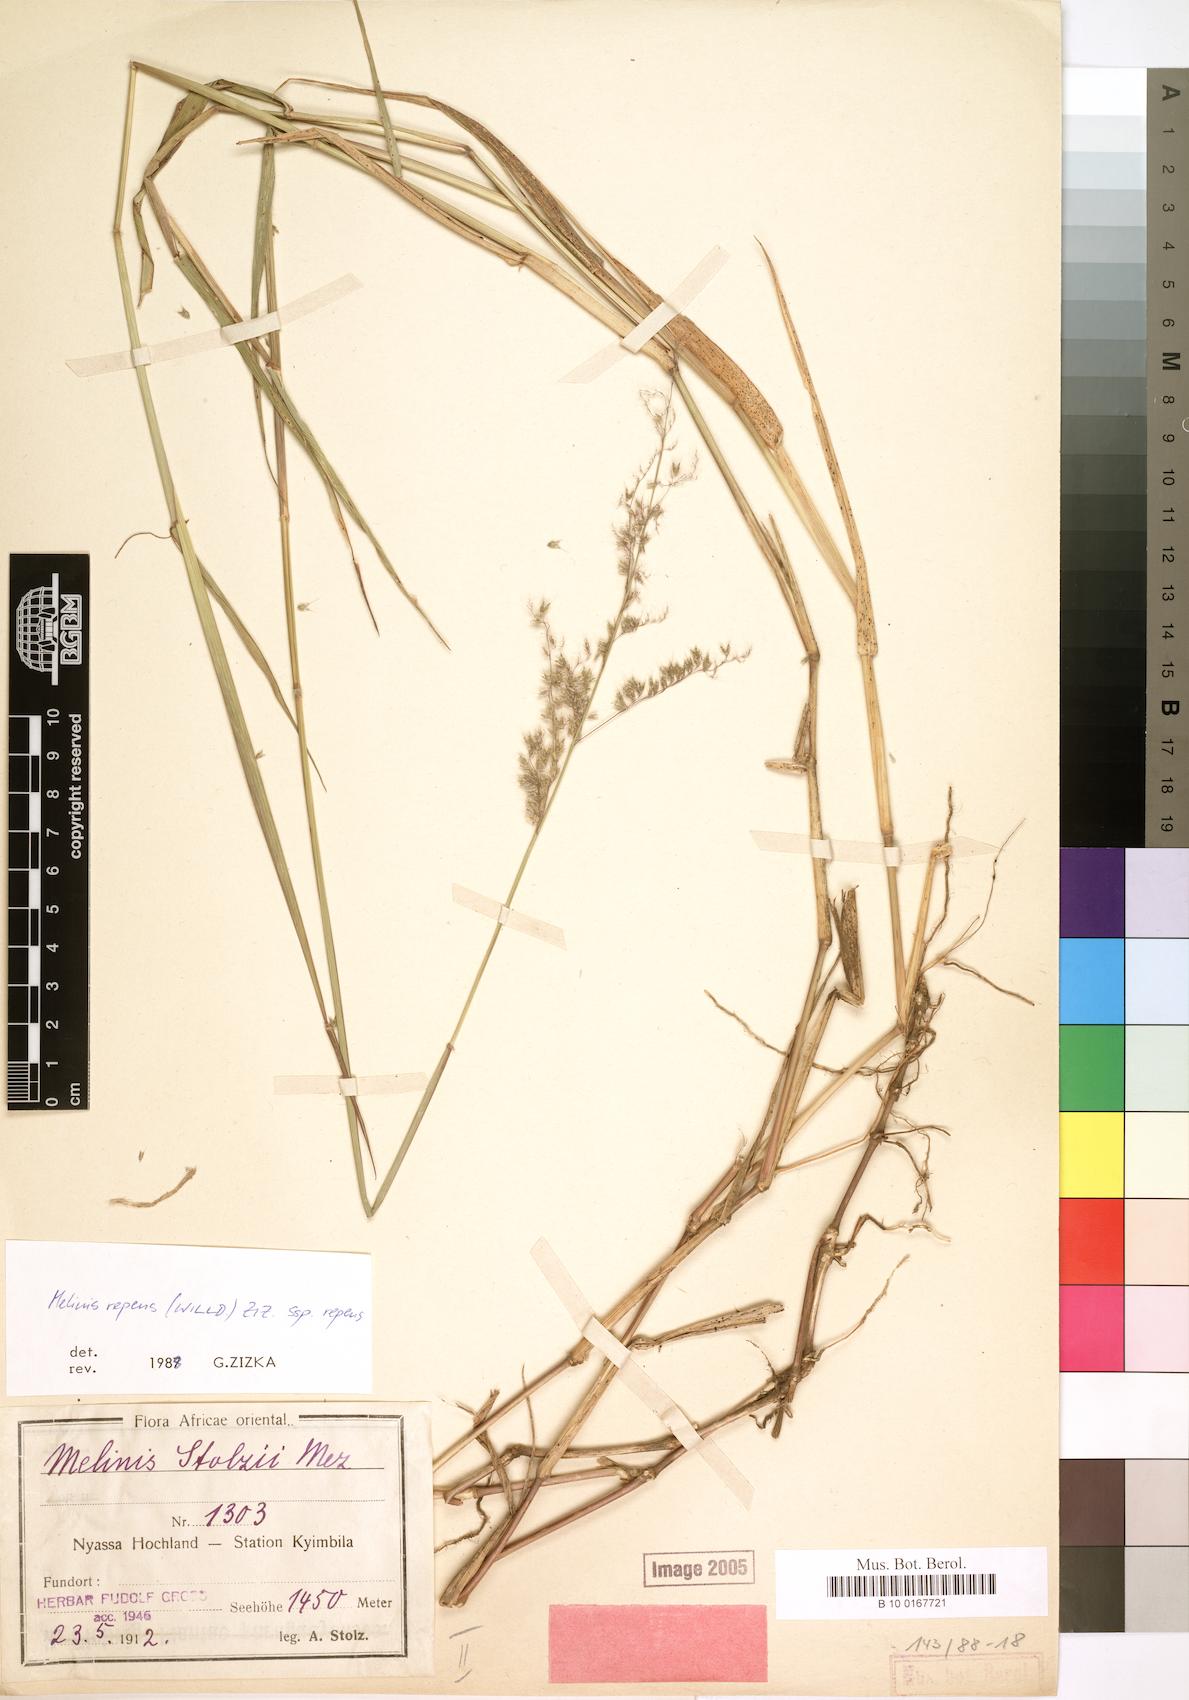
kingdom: Plantae
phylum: Tracheophyta
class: Liliopsida
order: Poales
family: Poaceae
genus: Melinis
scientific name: Melinis repens
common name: Rose natal grass
